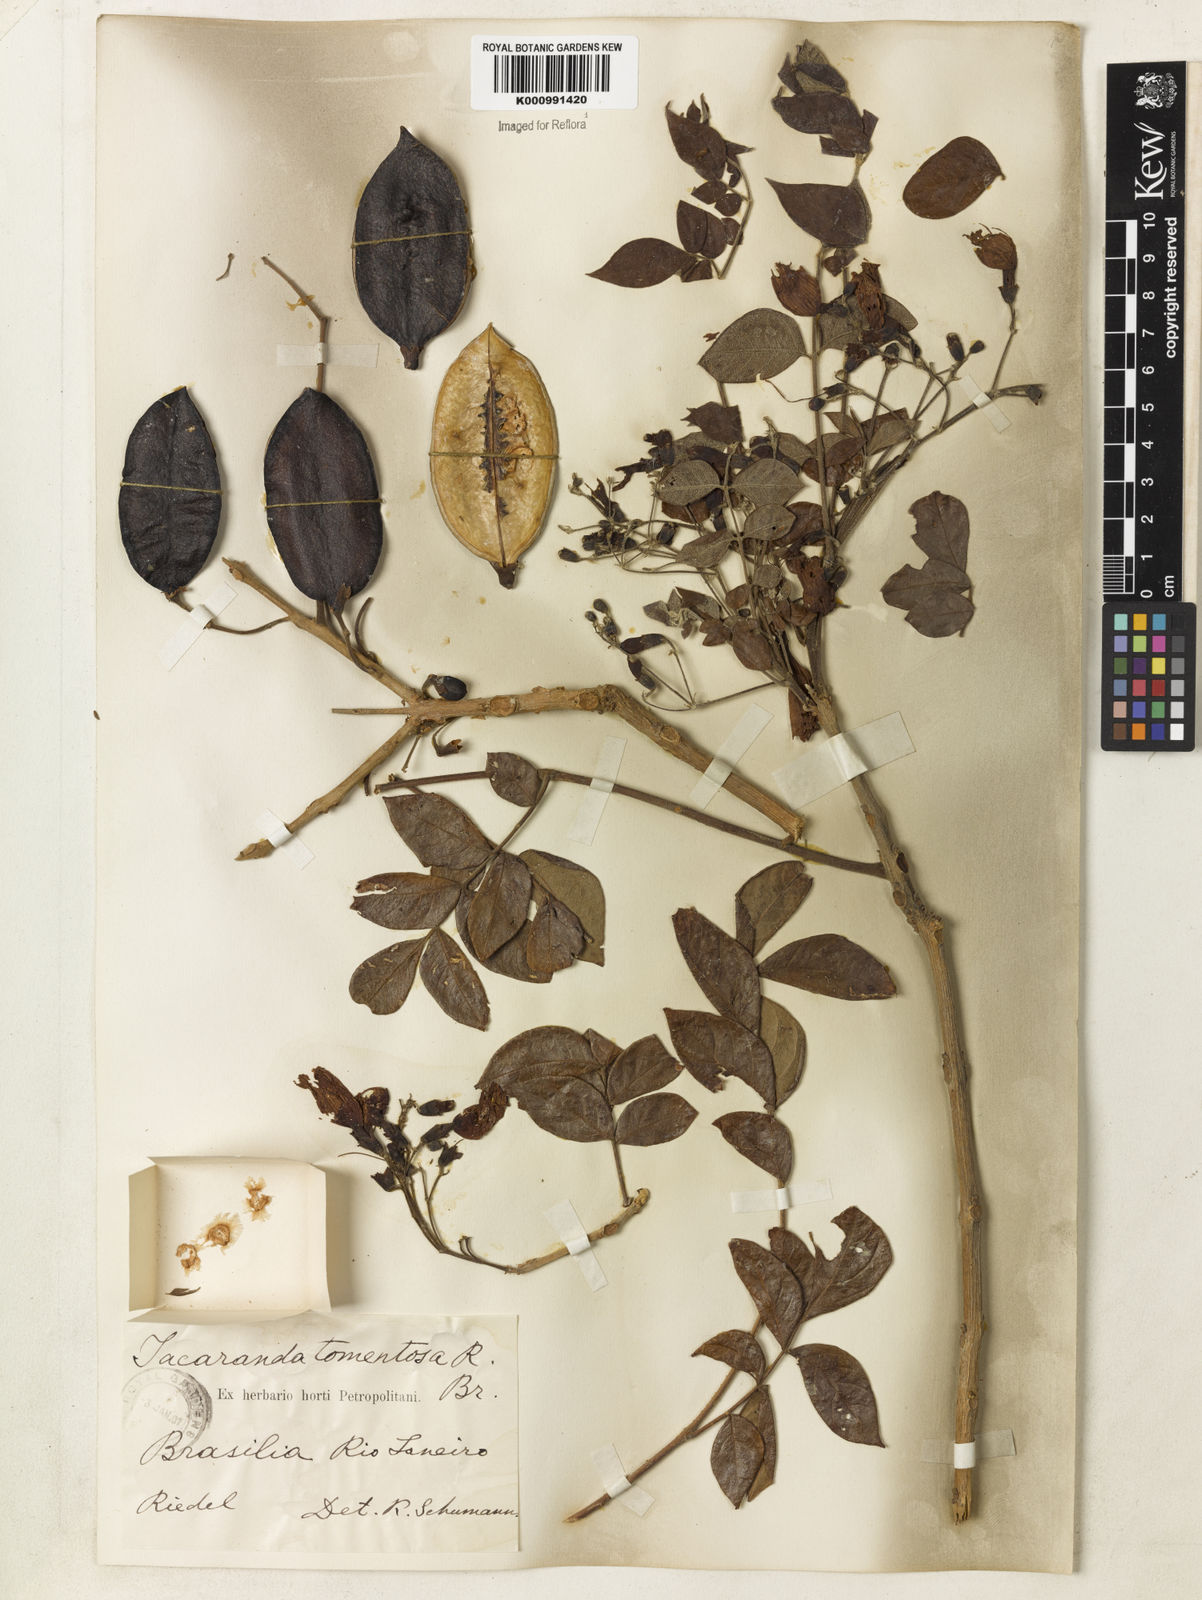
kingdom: Plantae
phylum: Tracheophyta
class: Magnoliopsida
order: Lamiales
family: Bignoniaceae
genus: Jacaranda
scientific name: Jacaranda jasminoides
